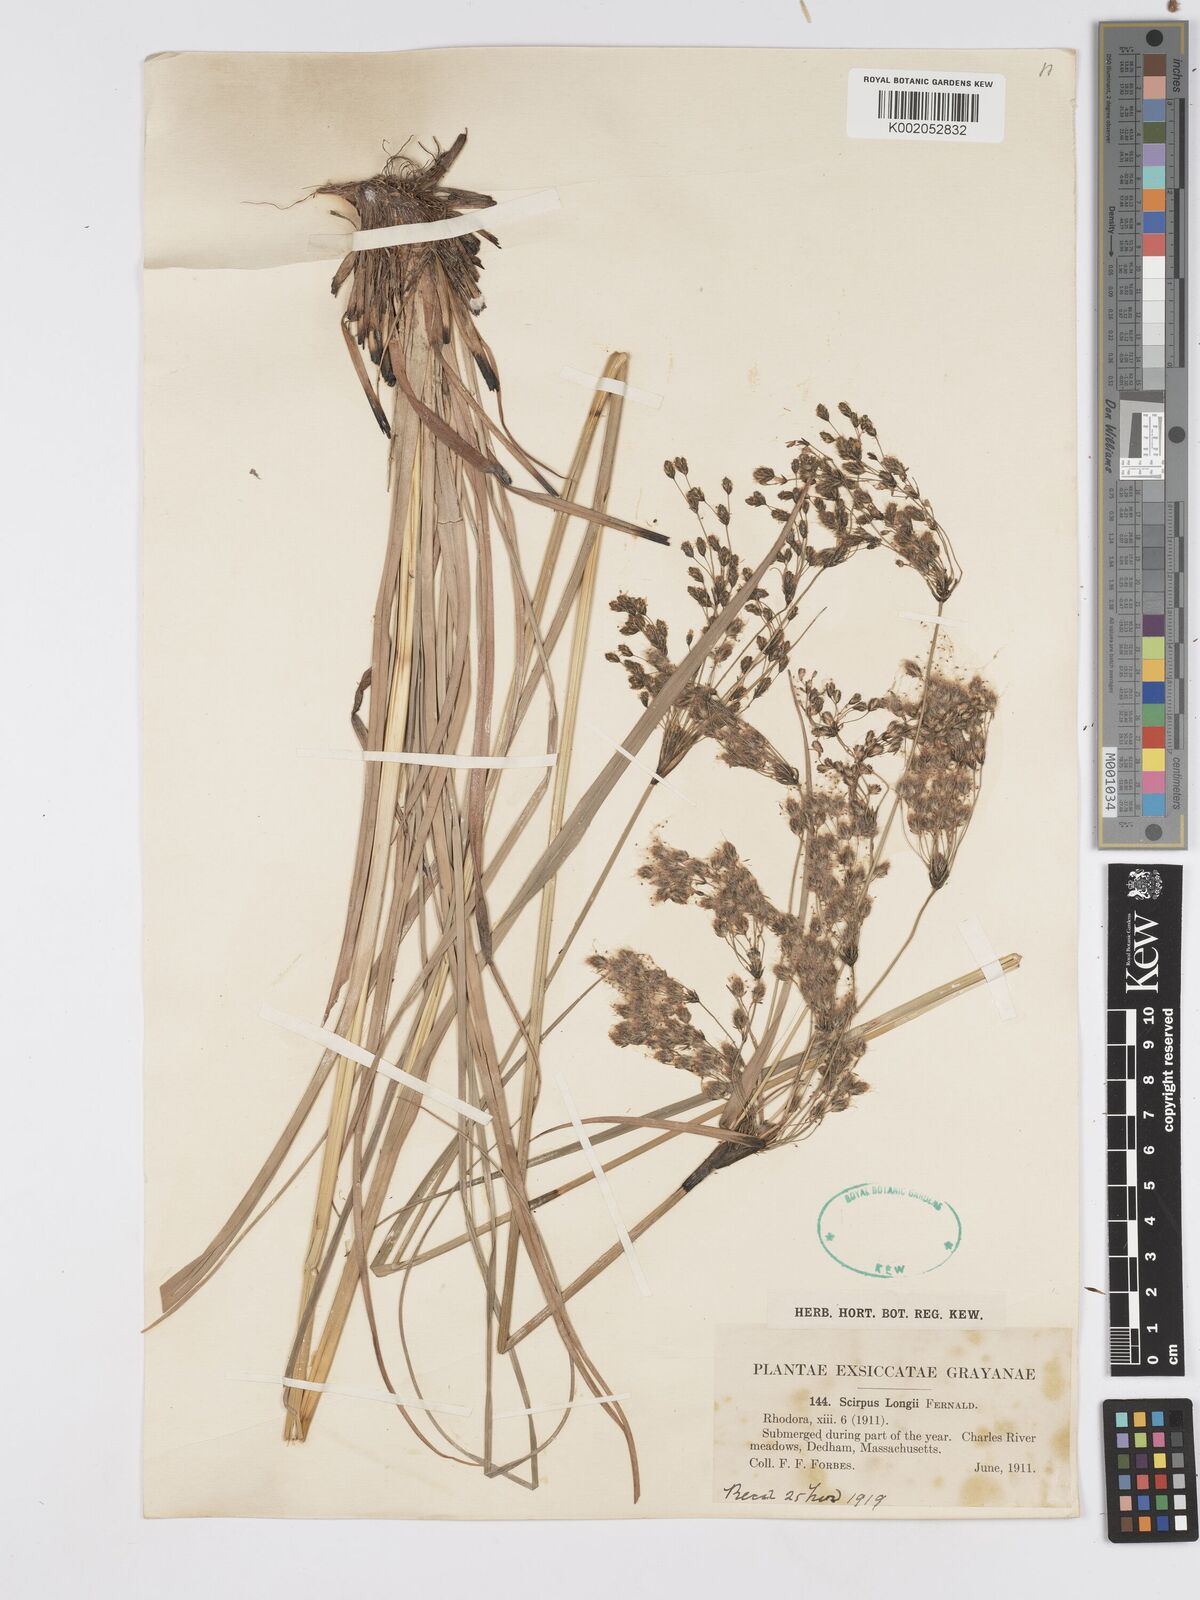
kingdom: Plantae
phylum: Tracheophyta
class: Liliopsida
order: Poales
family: Cyperaceae
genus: Scirpus
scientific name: Scirpus longii
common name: Long's bulrush
